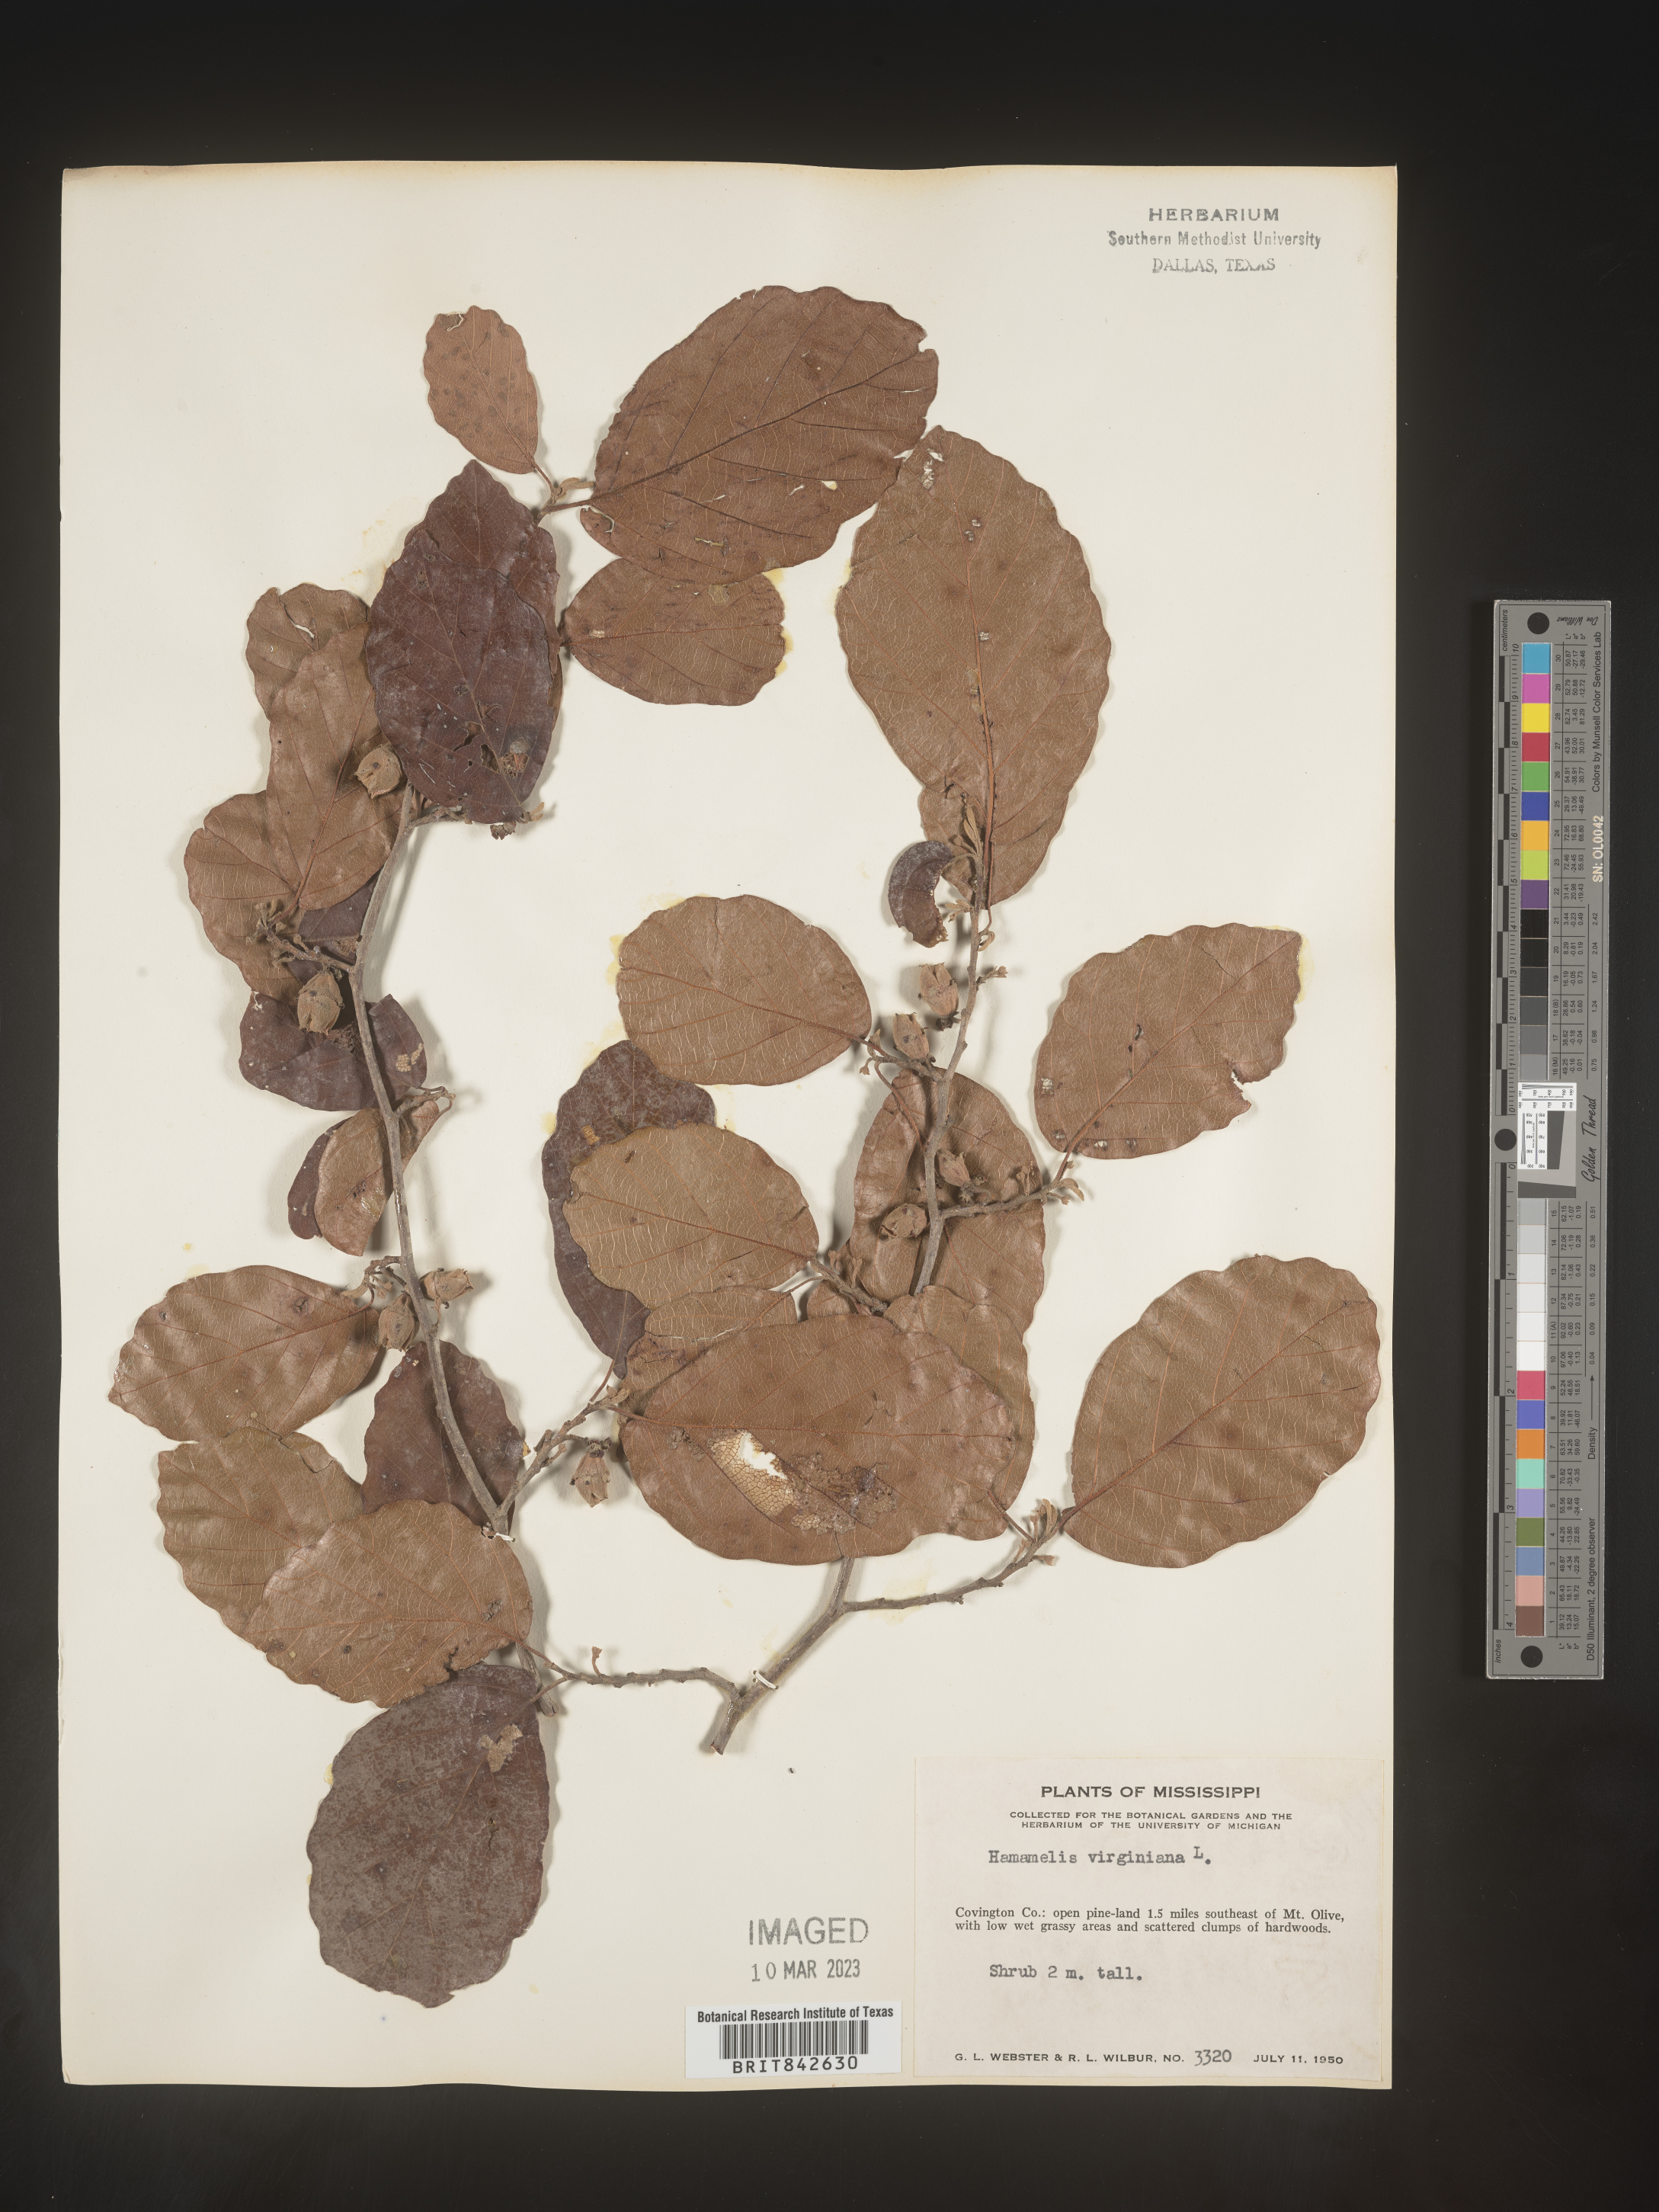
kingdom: Plantae
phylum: Tracheophyta
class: Magnoliopsida
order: Saxifragales
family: Hamamelidaceae
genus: Hamamelis
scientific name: Hamamelis
